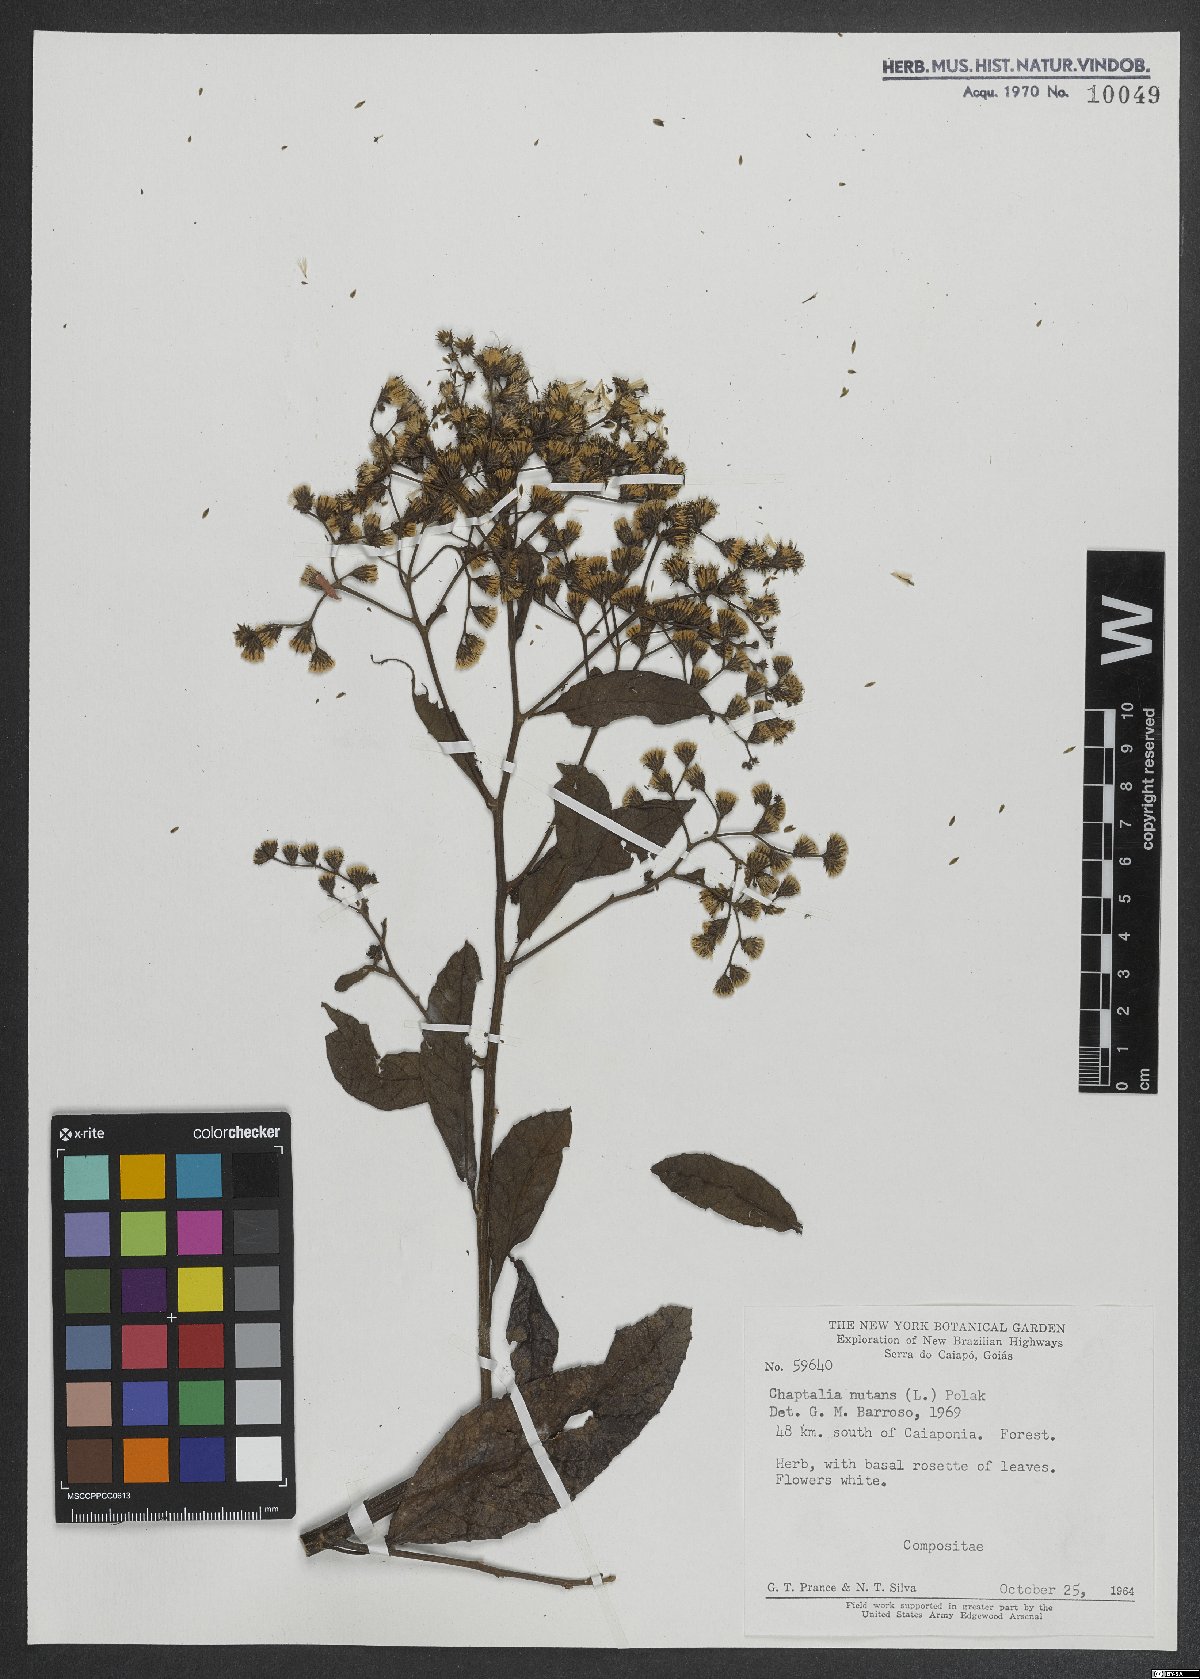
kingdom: Plantae
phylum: Tracheophyta
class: Magnoliopsida
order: Asterales
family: Asteraceae
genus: Chaptalia
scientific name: Chaptalia nutans
